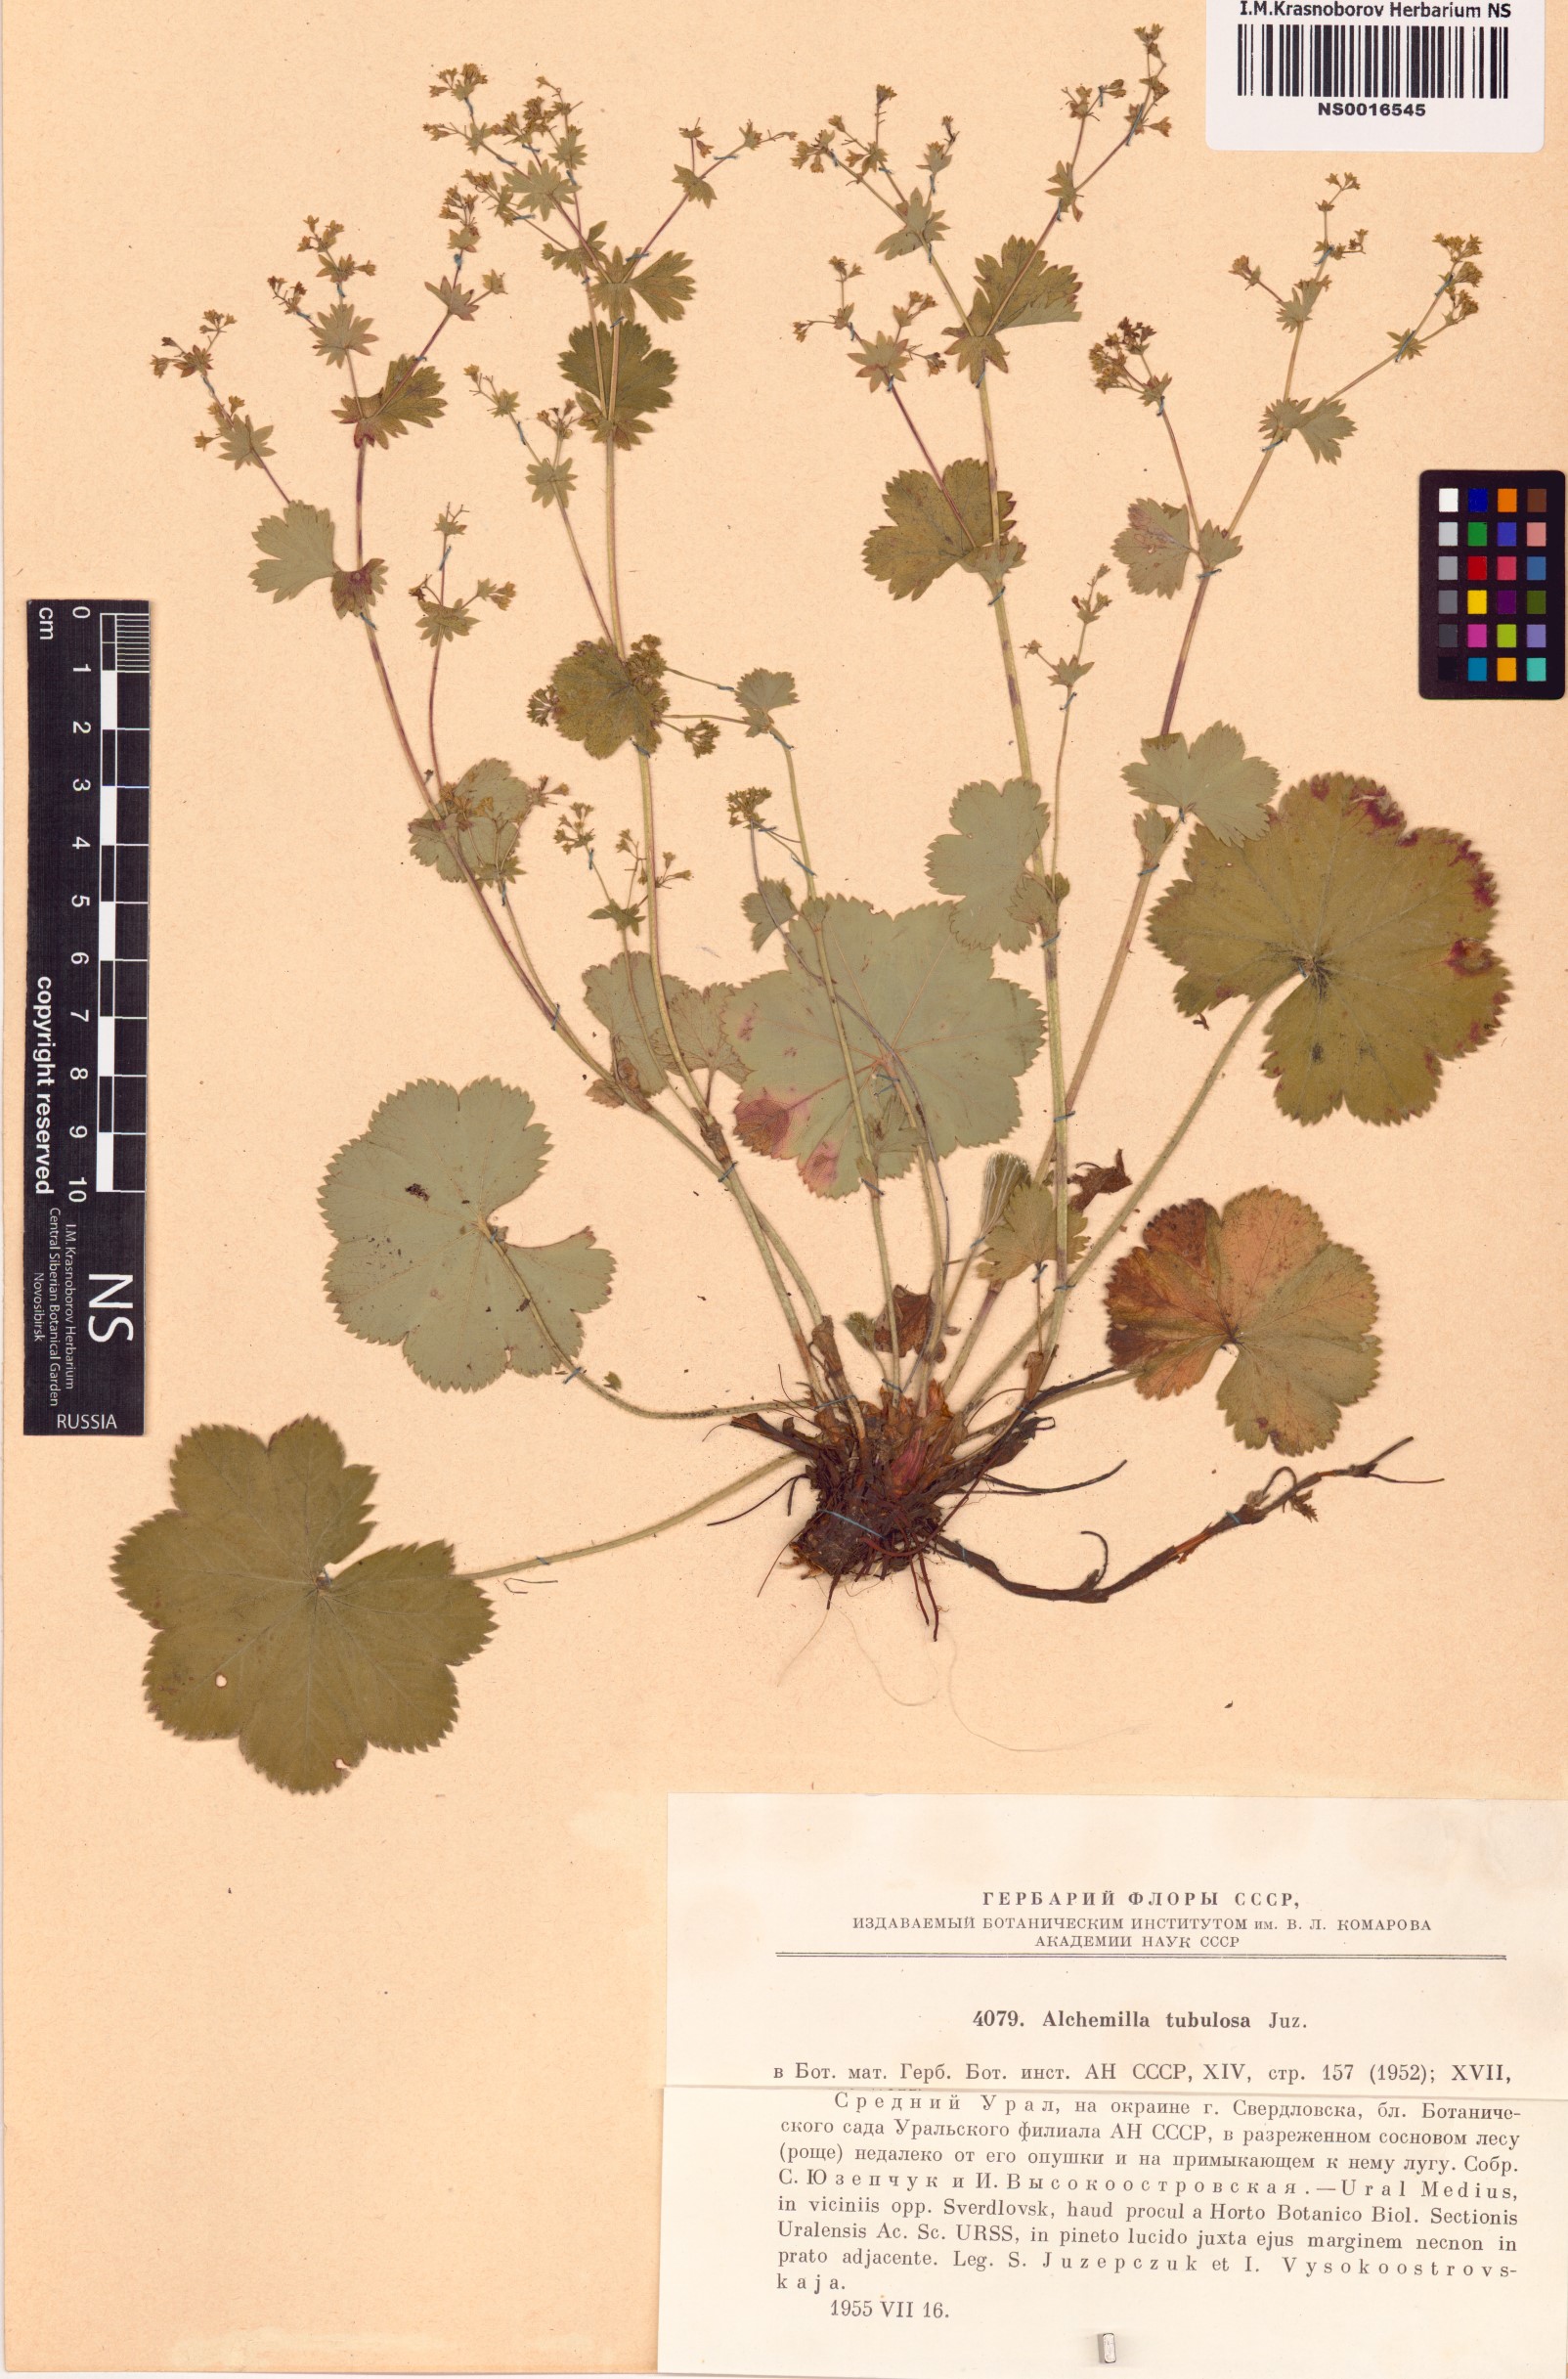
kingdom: Plantae
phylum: Tracheophyta
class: Magnoliopsida
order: Rosales
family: Rosaceae
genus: Alchemilla
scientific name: Alchemilla tubulosa
